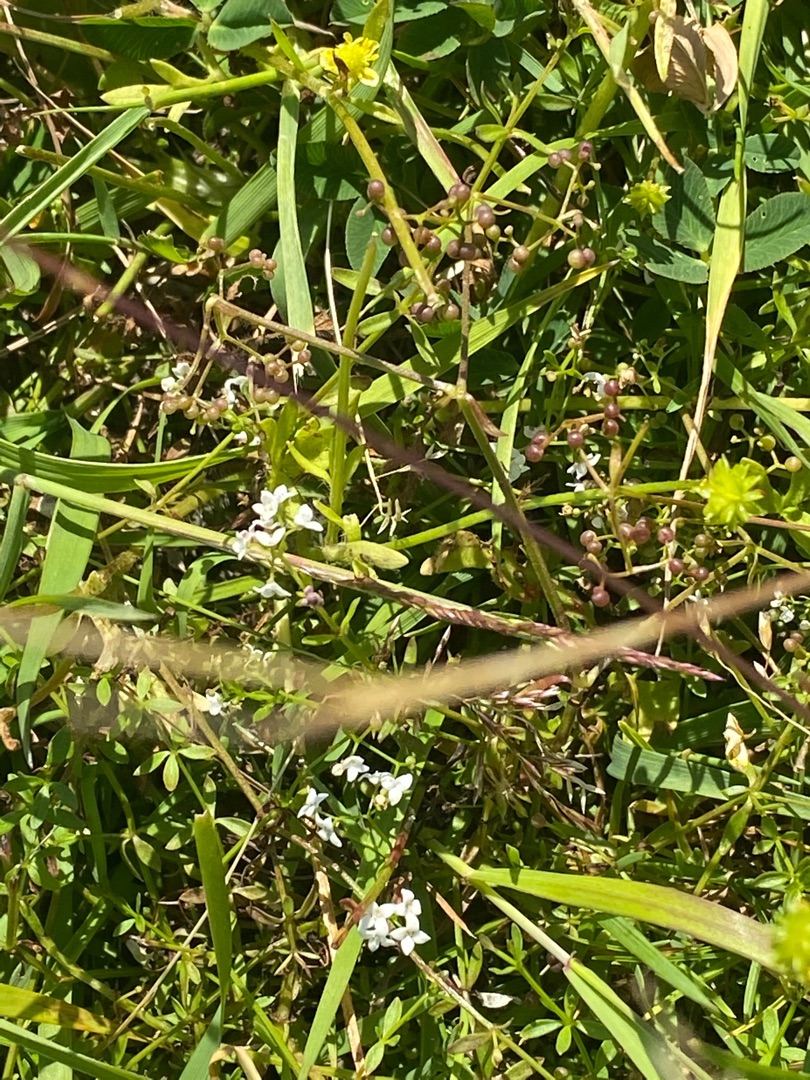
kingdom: Plantae
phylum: Tracheophyta
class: Magnoliopsida
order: Gentianales
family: Rubiaceae
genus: Galium
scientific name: Galium palustre
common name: Kær-snerre
